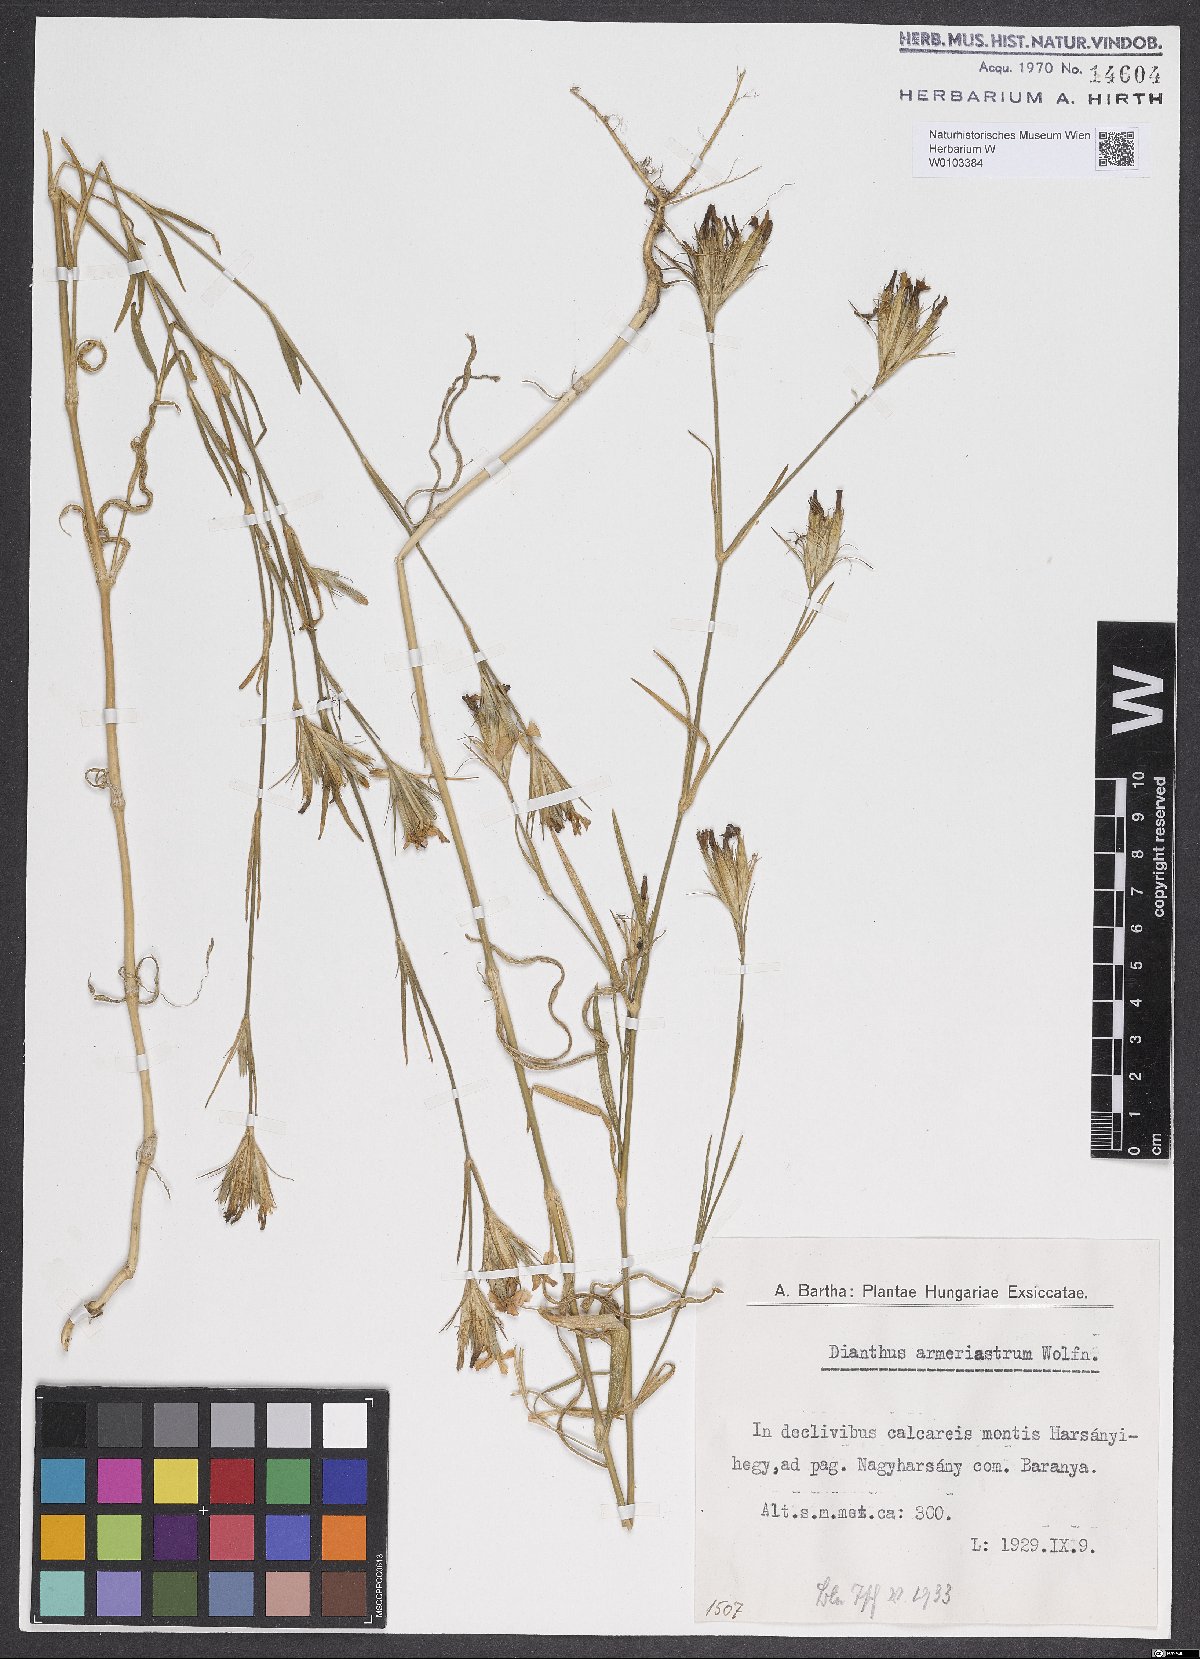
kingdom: Plantae
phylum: Tracheophyta
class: Magnoliopsida
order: Caryophyllales
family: Caryophyllaceae
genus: Dianthus
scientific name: Dianthus corymbosus
